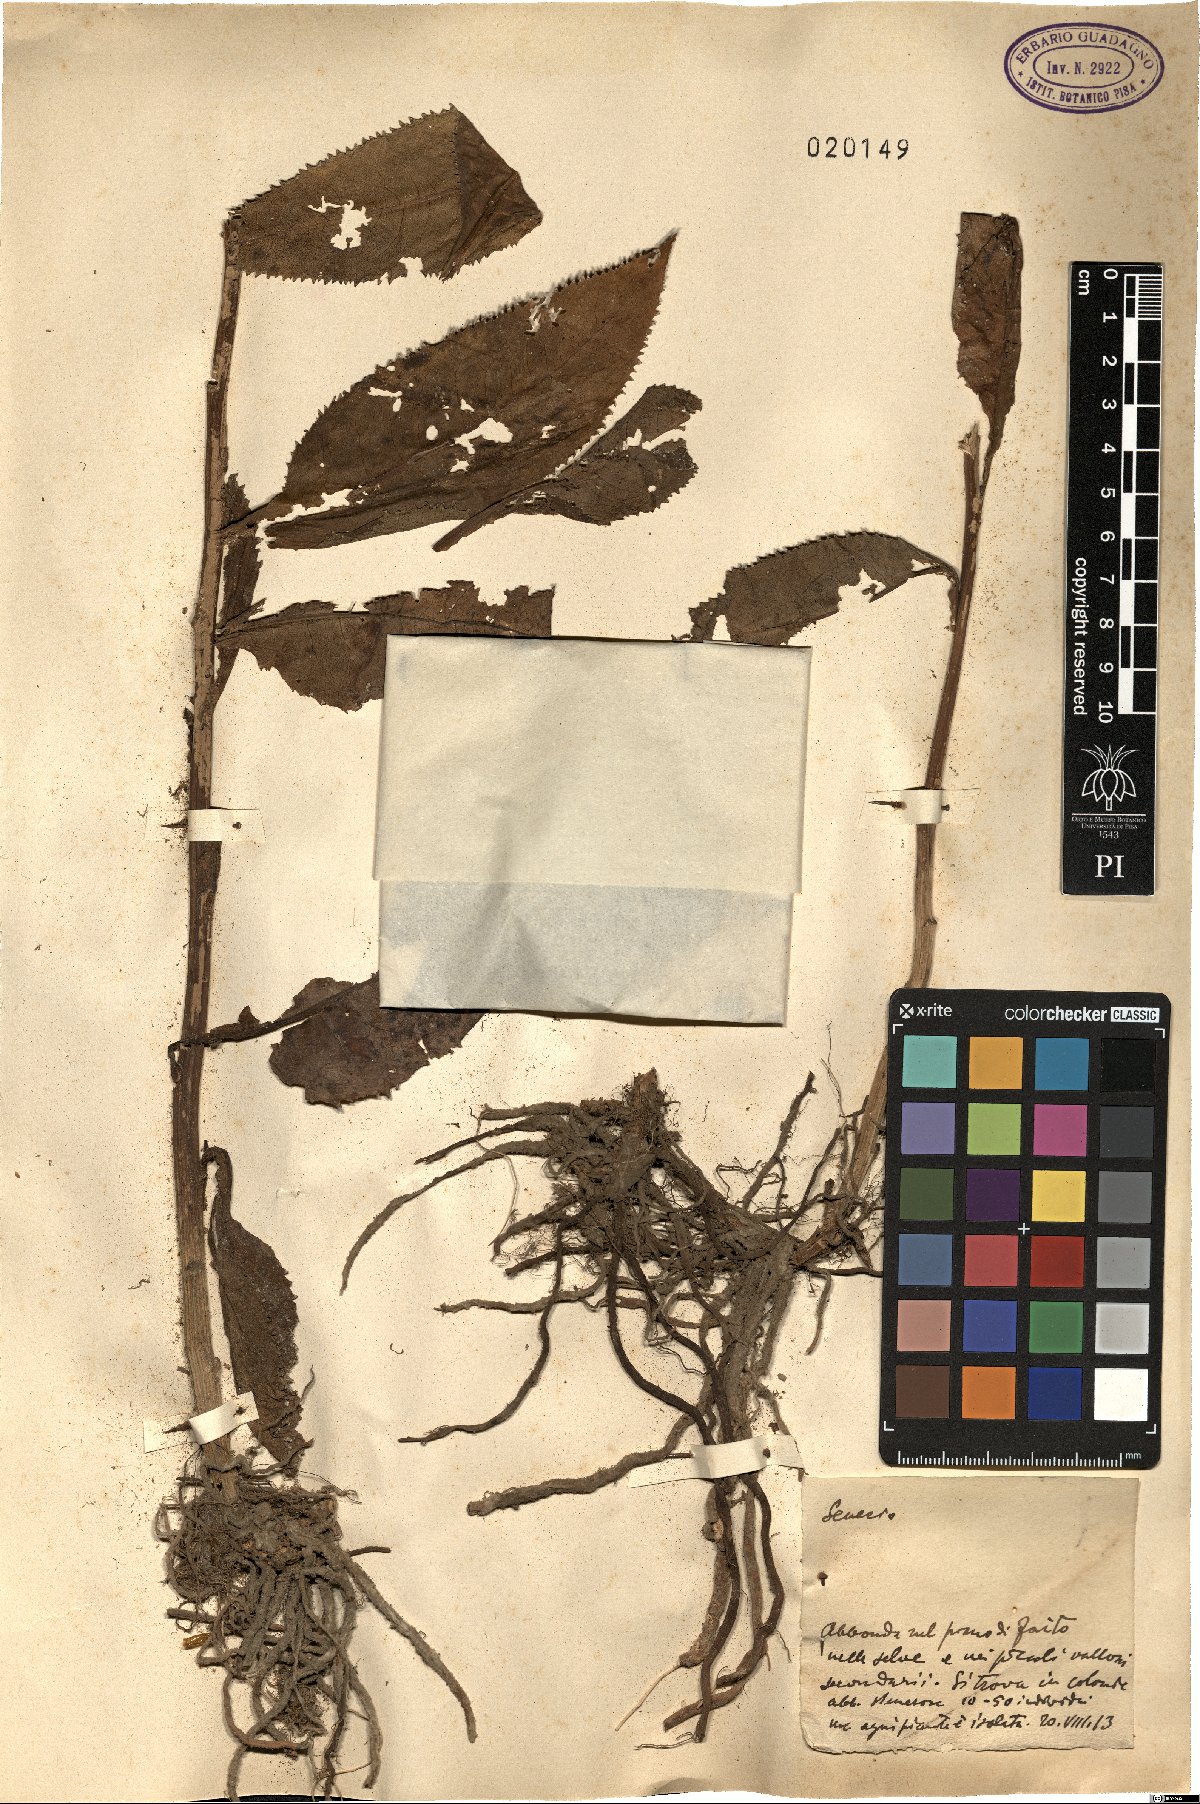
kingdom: Plantae
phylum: Tracheophyta
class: Magnoliopsida
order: Asterales
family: Asteraceae
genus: Senecio
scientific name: Senecio
